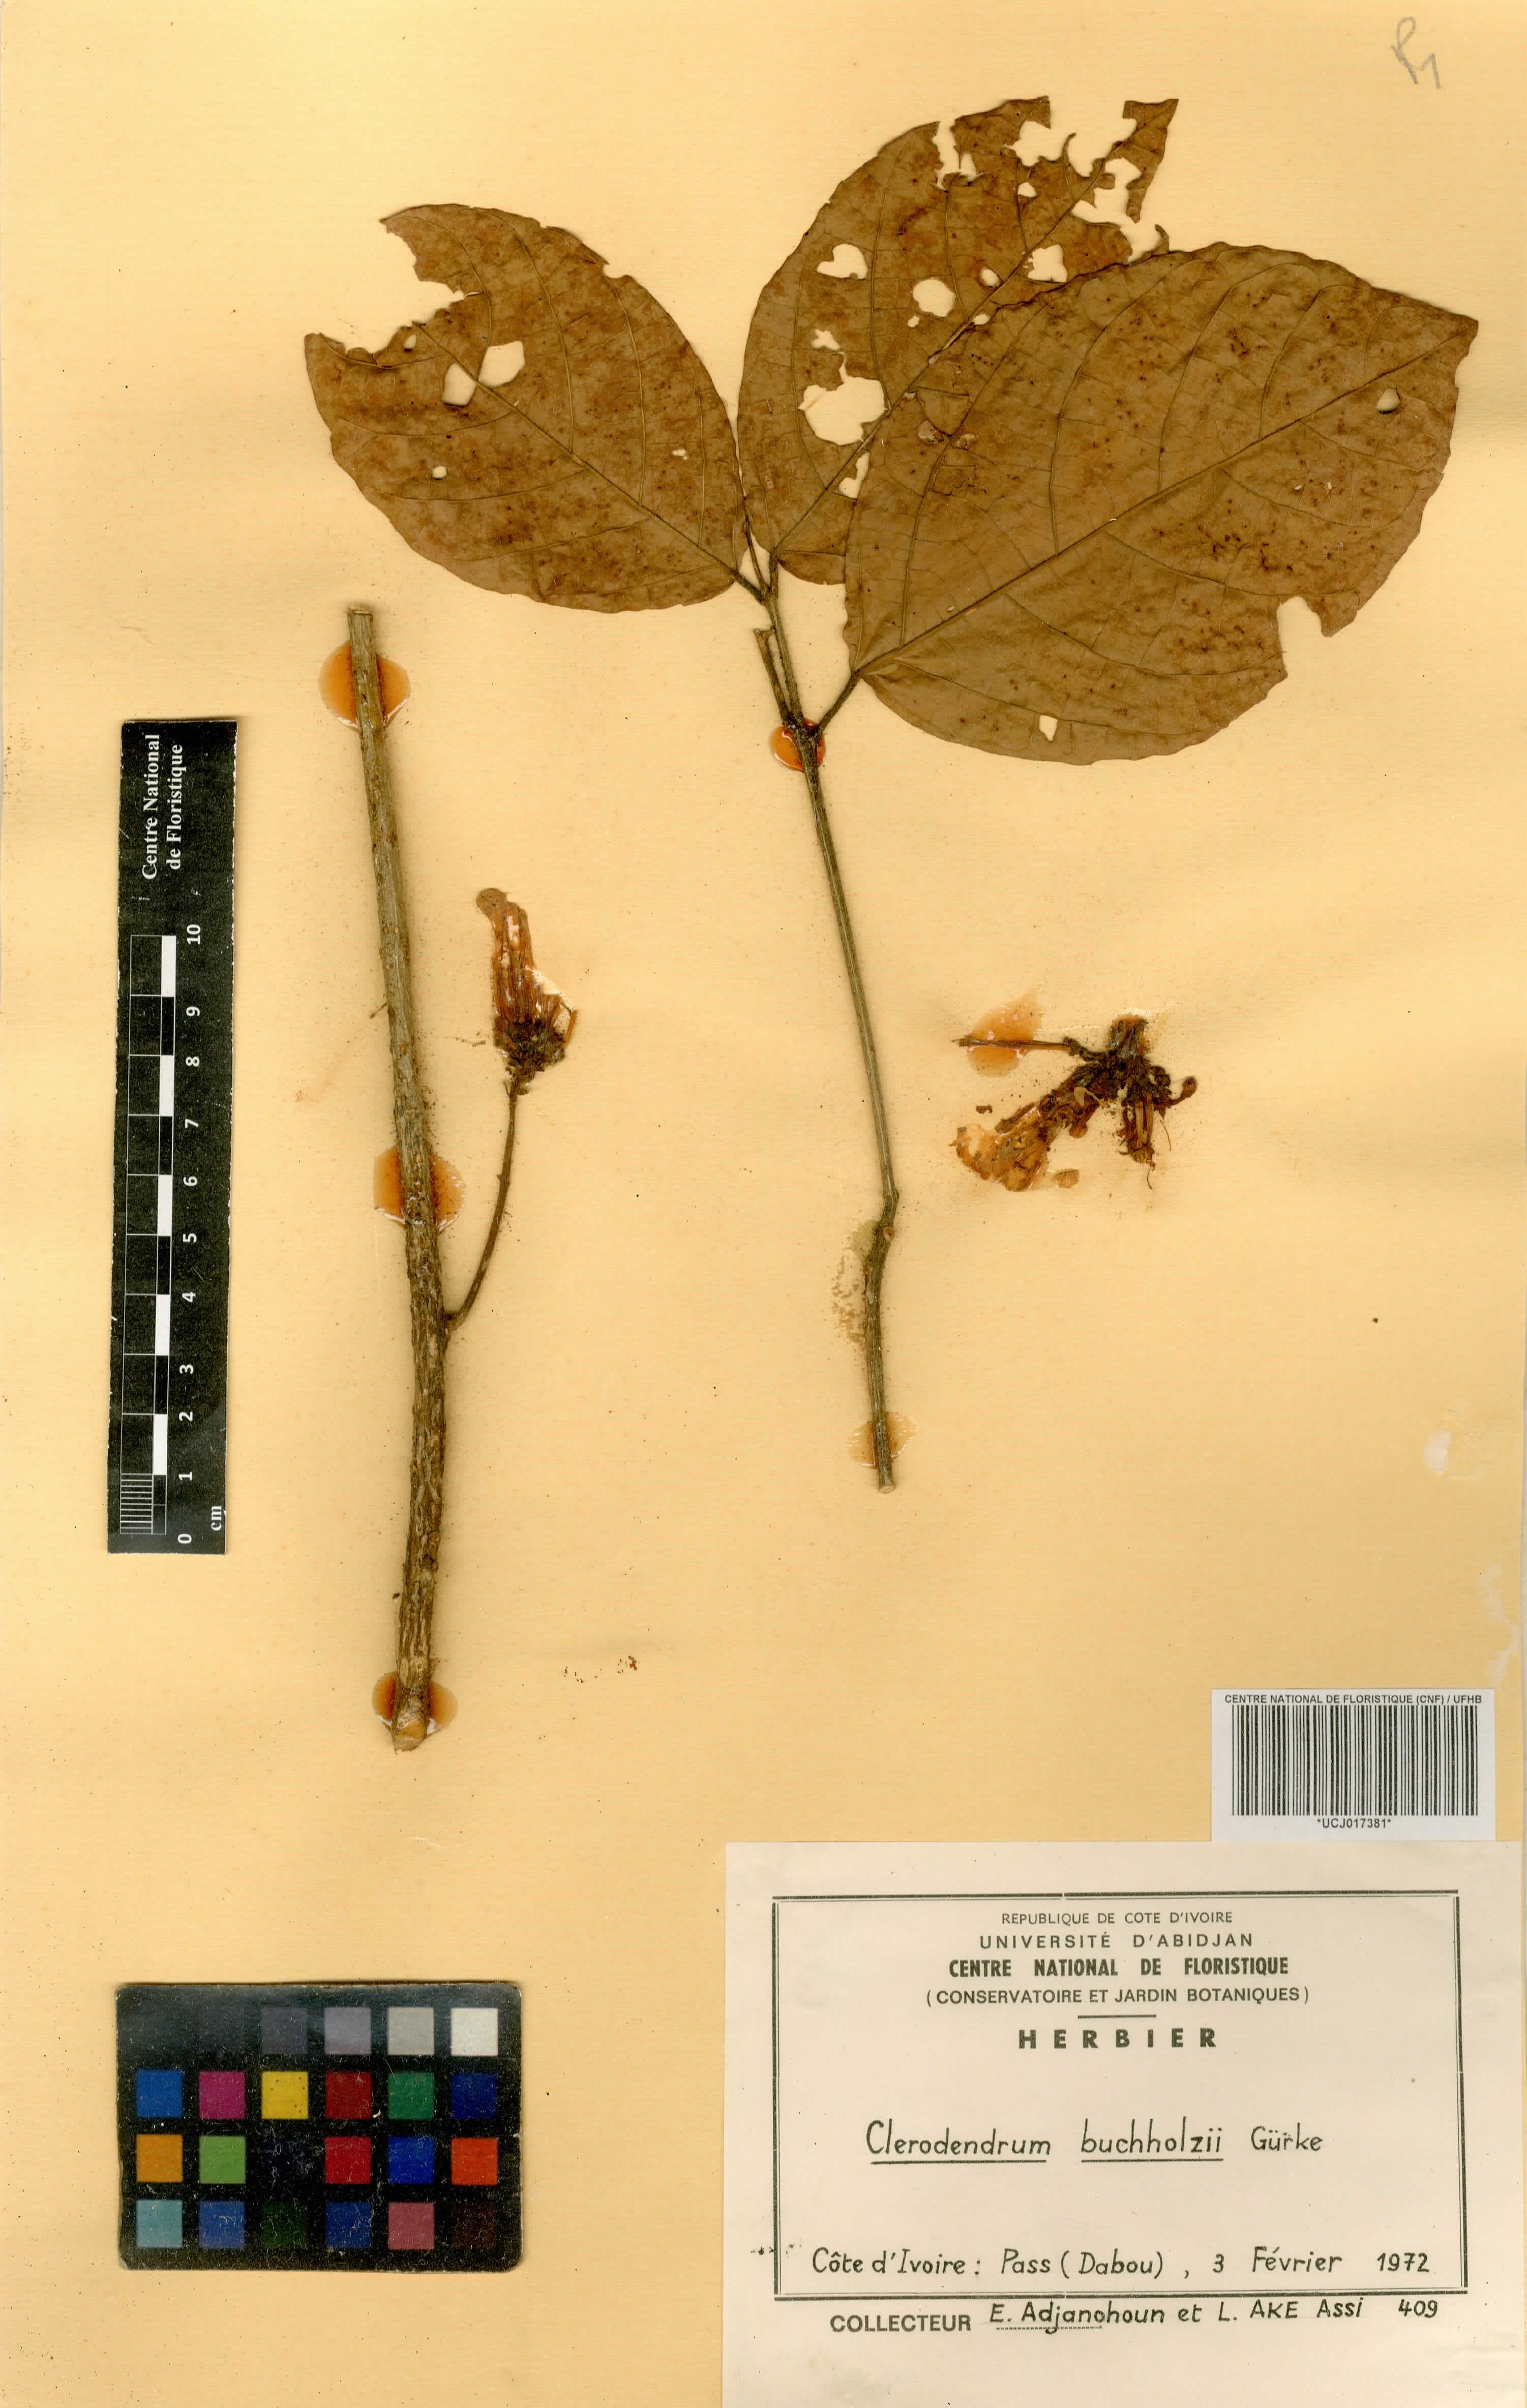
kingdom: Plantae
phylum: Tracheophyta
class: Magnoliopsida
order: Lamiales
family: Lamiaceae
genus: Clerodendrum
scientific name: Clerodendrum silvanum
